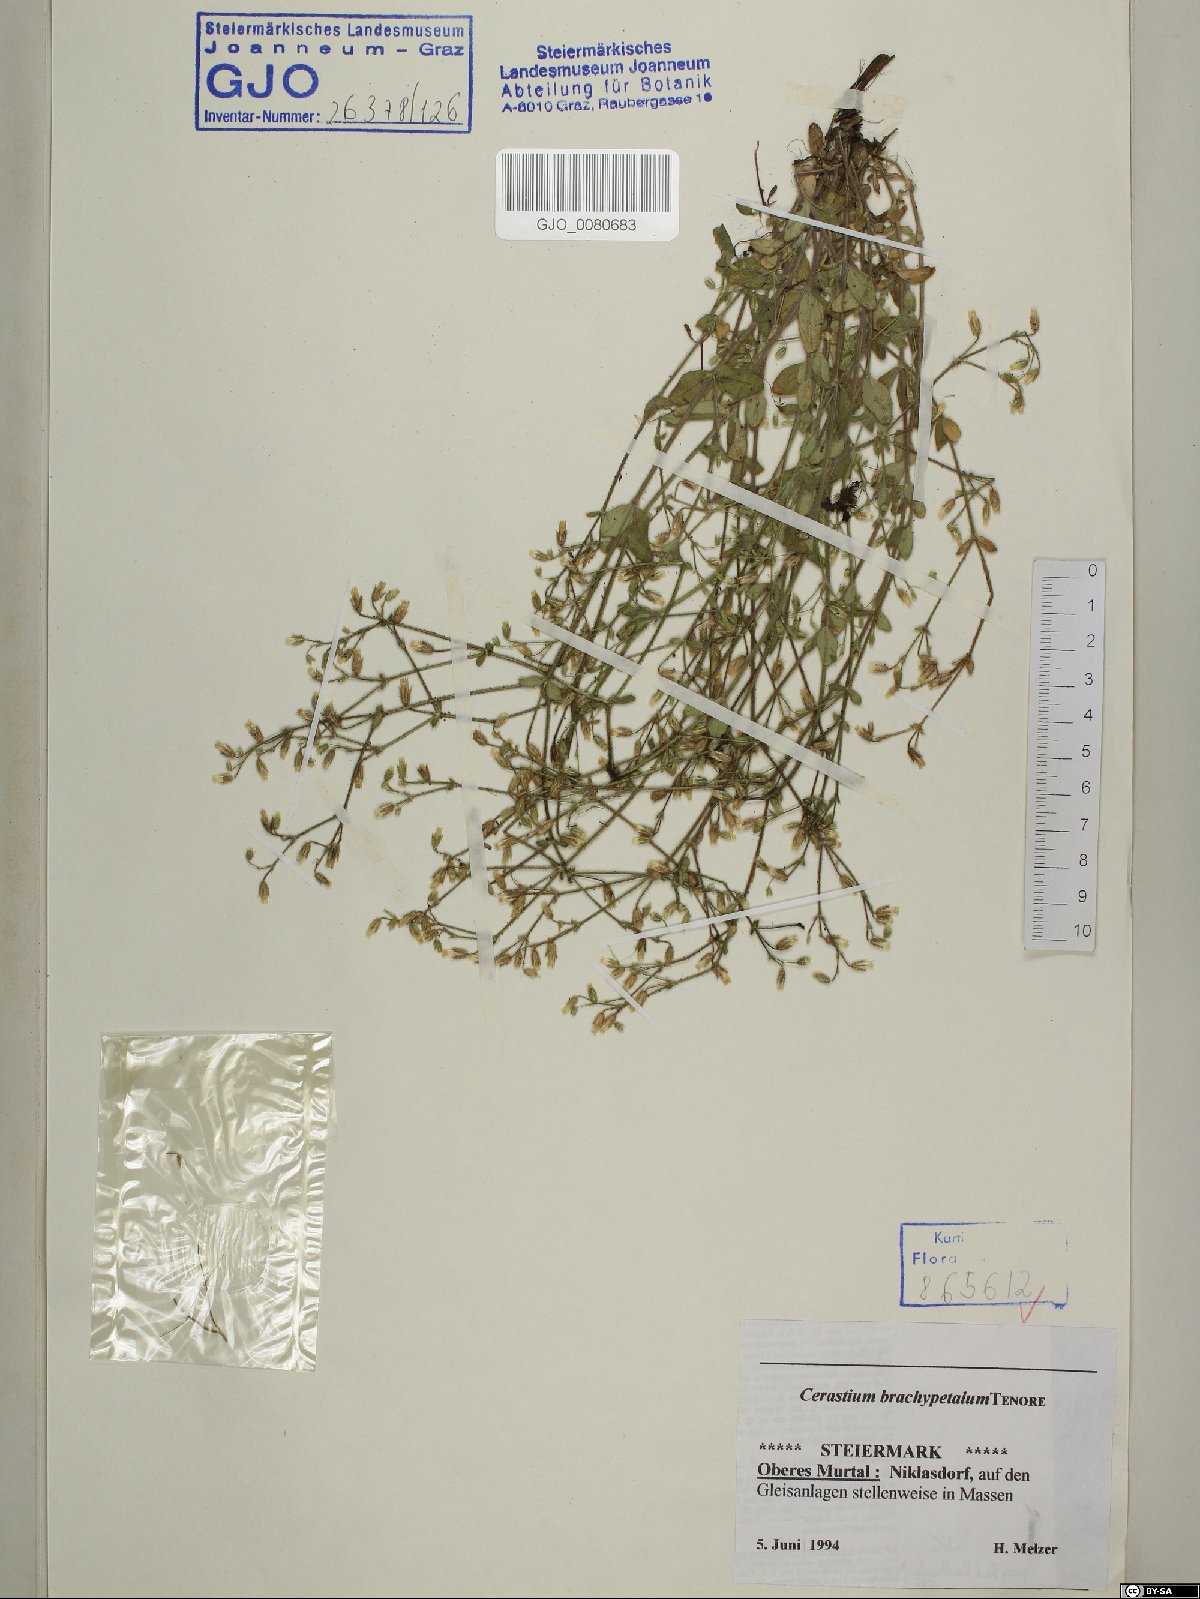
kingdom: Plantae
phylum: Tracheophyta
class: Magnoliopsida
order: Caryophyllales
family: Caryophyllaceae
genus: Cerastium
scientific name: Cerastium brachypetalum
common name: Grey mouse-ear
